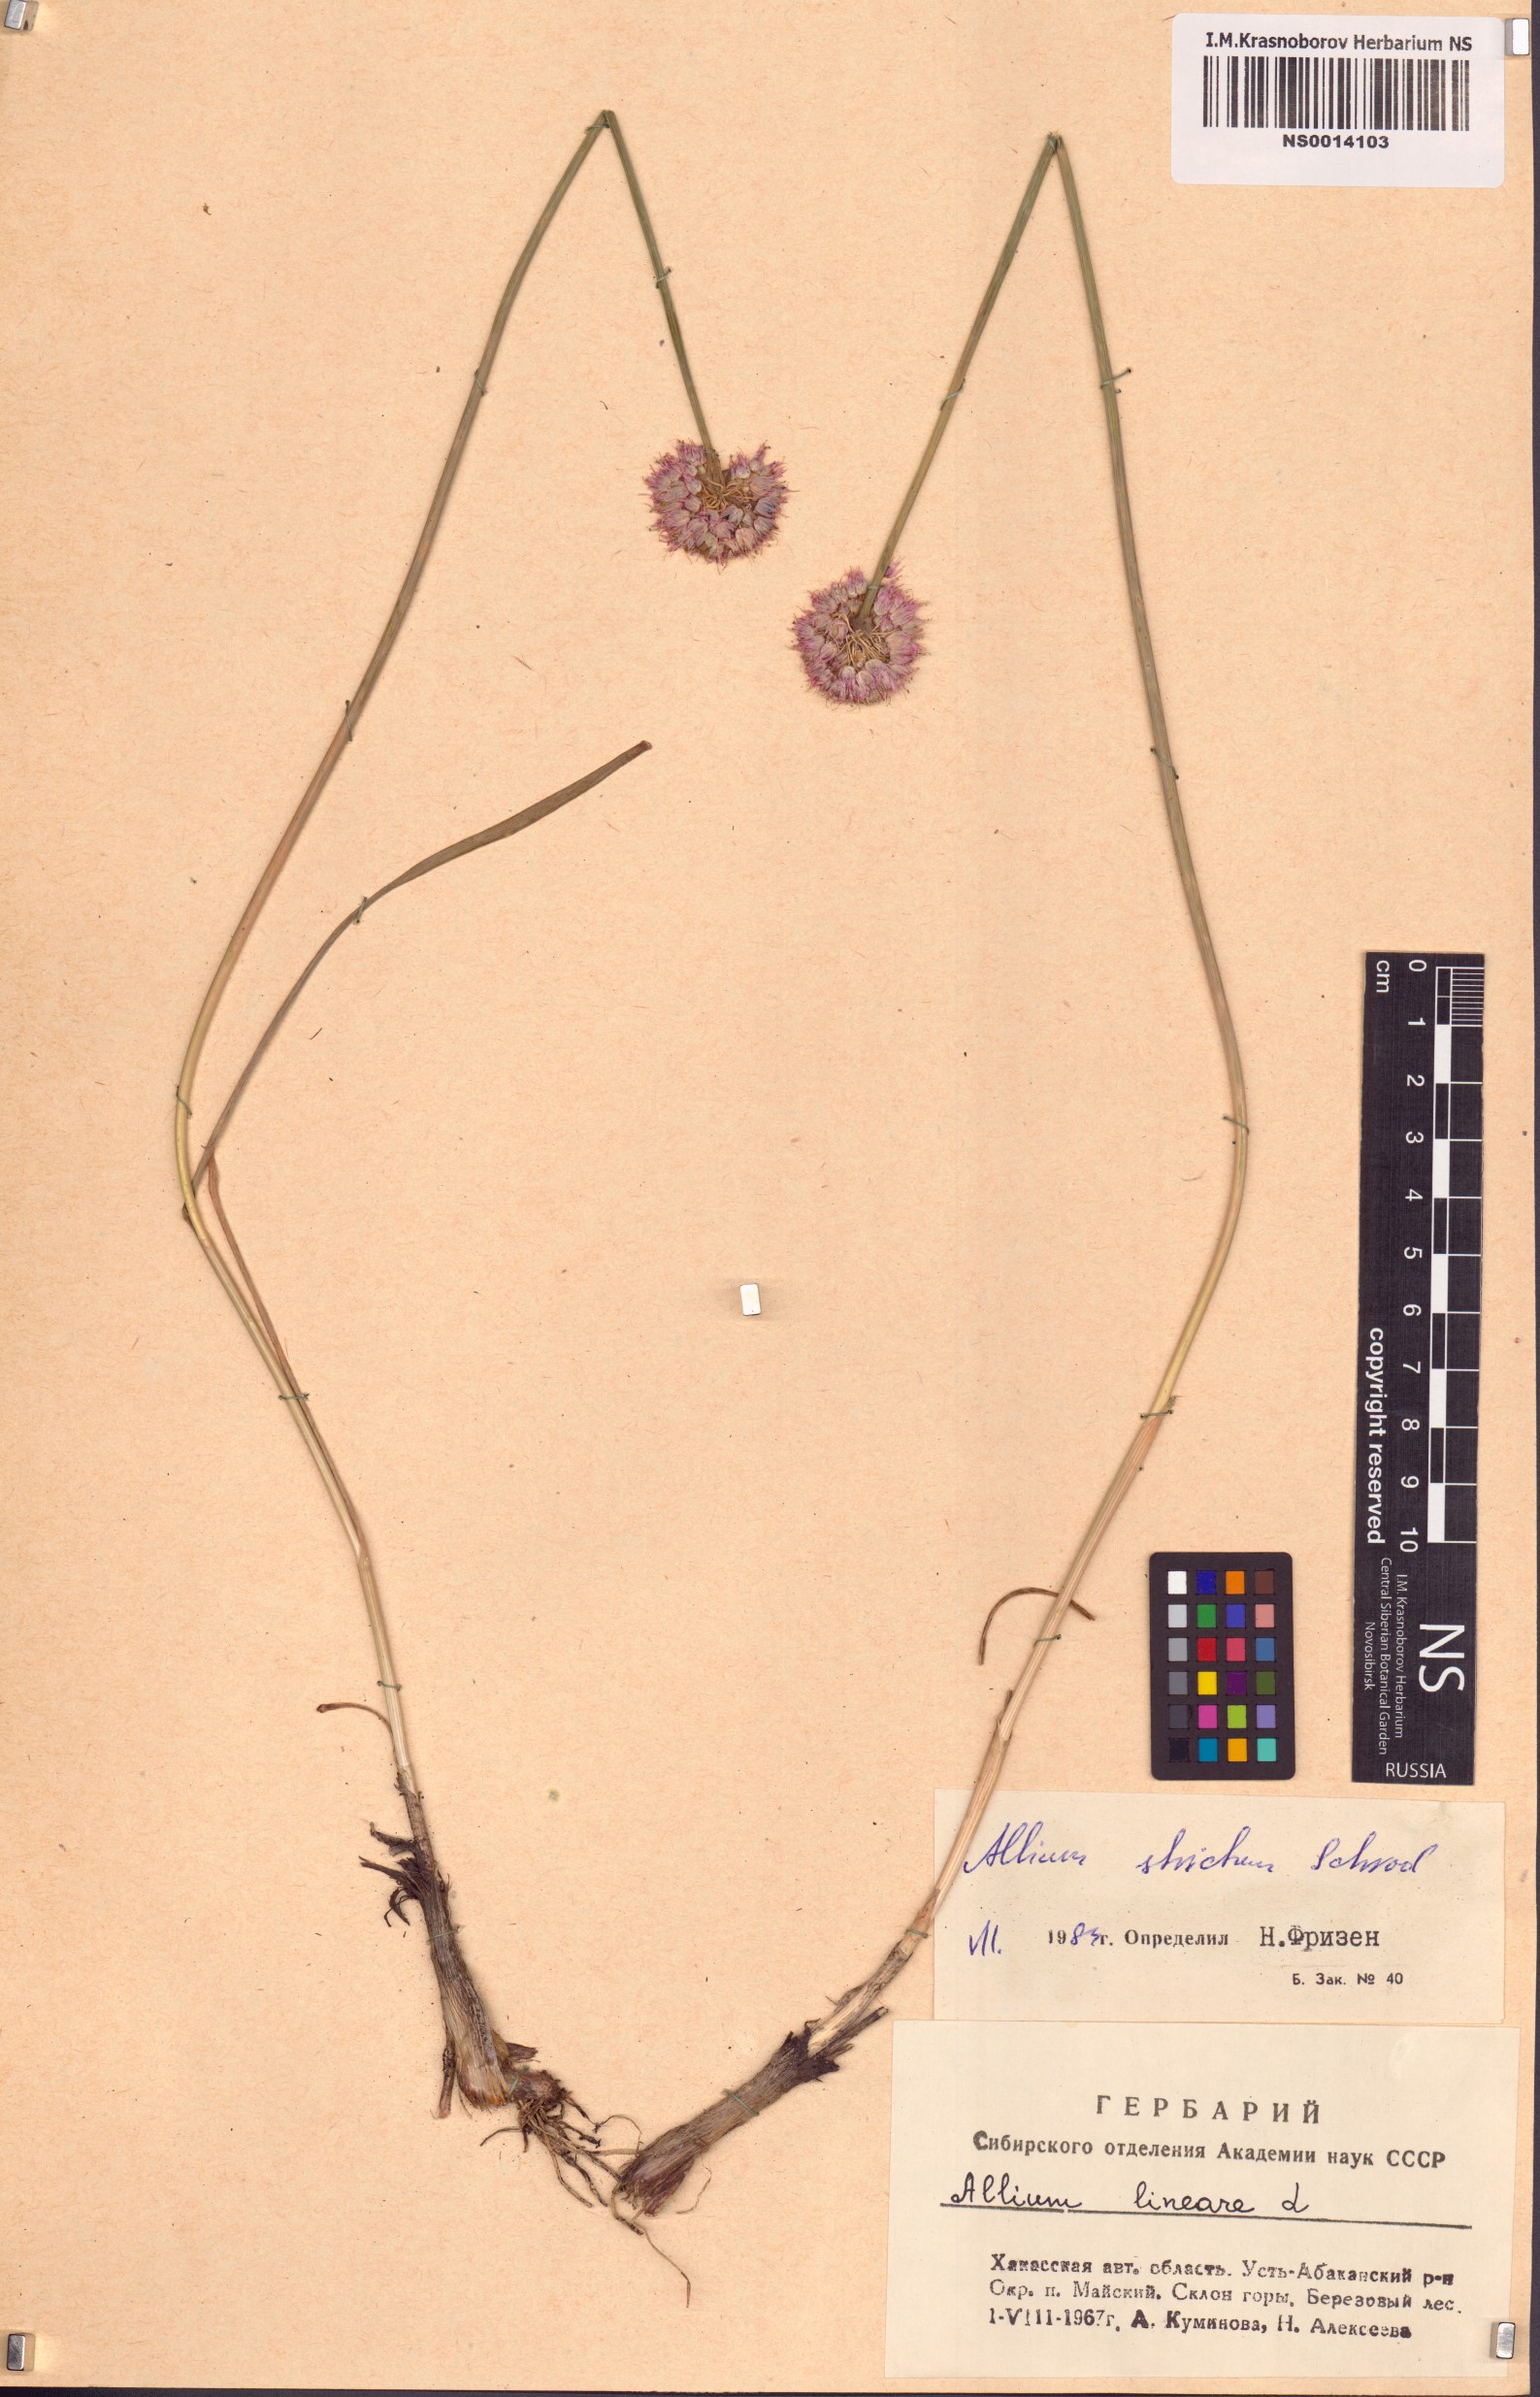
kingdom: Plantae
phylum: Tracheophyta
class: Liliopsida
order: Asparagales
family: Amaryllidaceae
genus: Allium
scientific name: Allium strictum
